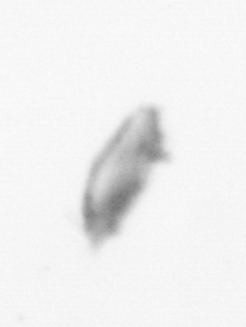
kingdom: Animalia
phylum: Arthropoda
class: Copepoda
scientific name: Copepoda
